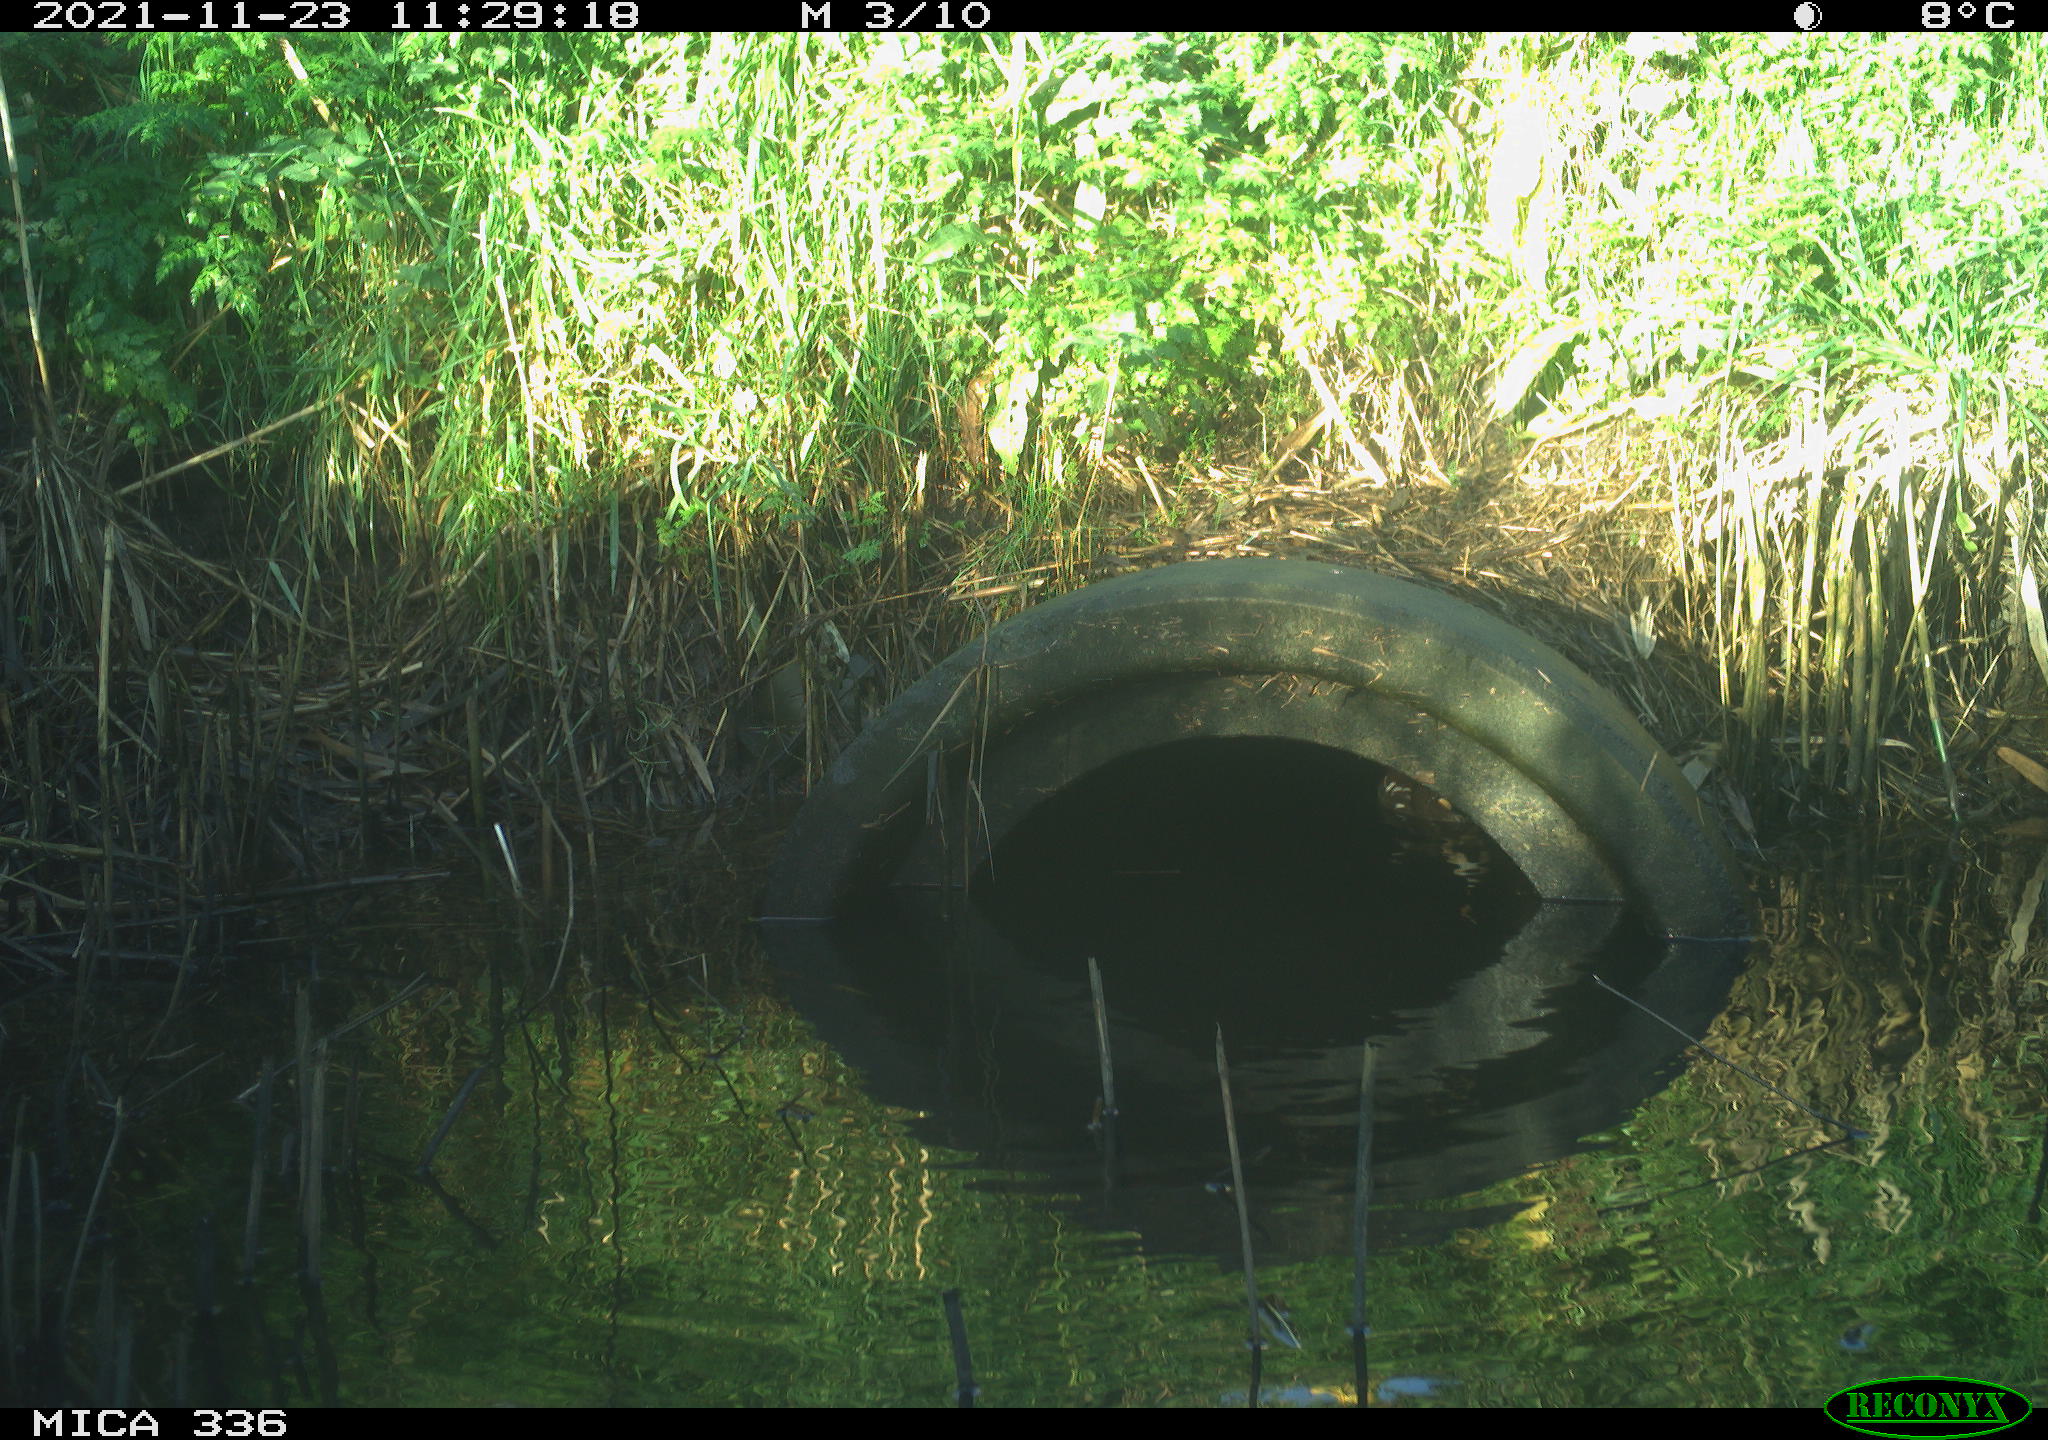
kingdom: Animalia
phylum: Chordata
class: Aves
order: Gruiformes
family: Rallidae
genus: Gallinula
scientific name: Gallinula chloropus
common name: Common moorhen
